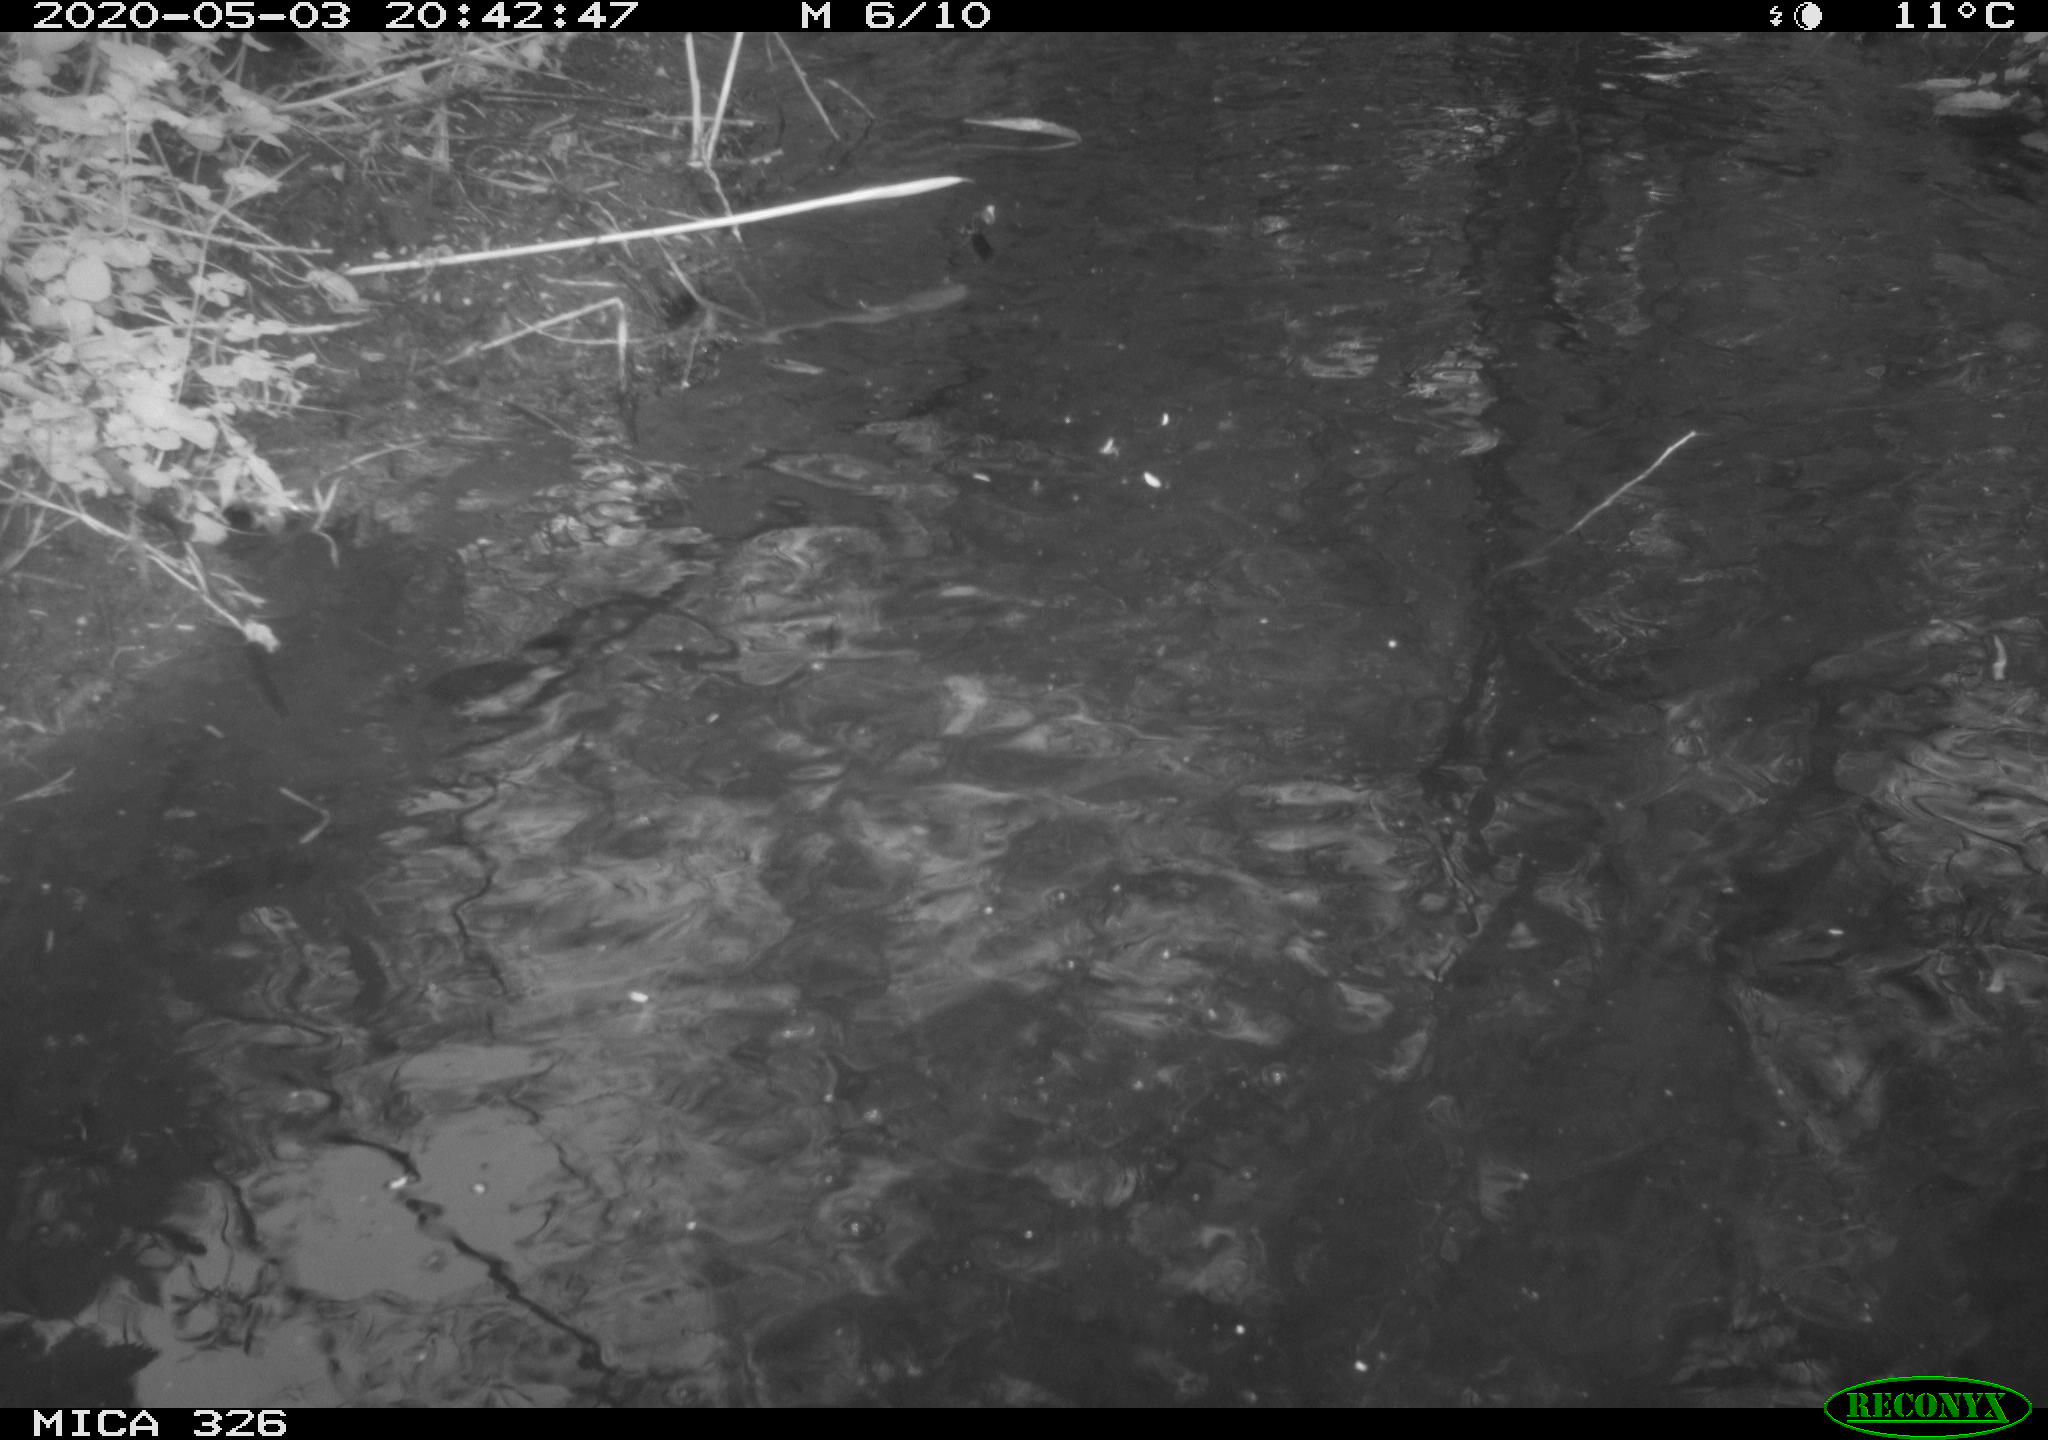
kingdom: Animalia
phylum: Chordata
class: Mammalia
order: Rodentia
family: Myocastoridae
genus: Myocastor
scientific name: Myocastor coypus
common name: Coypu
